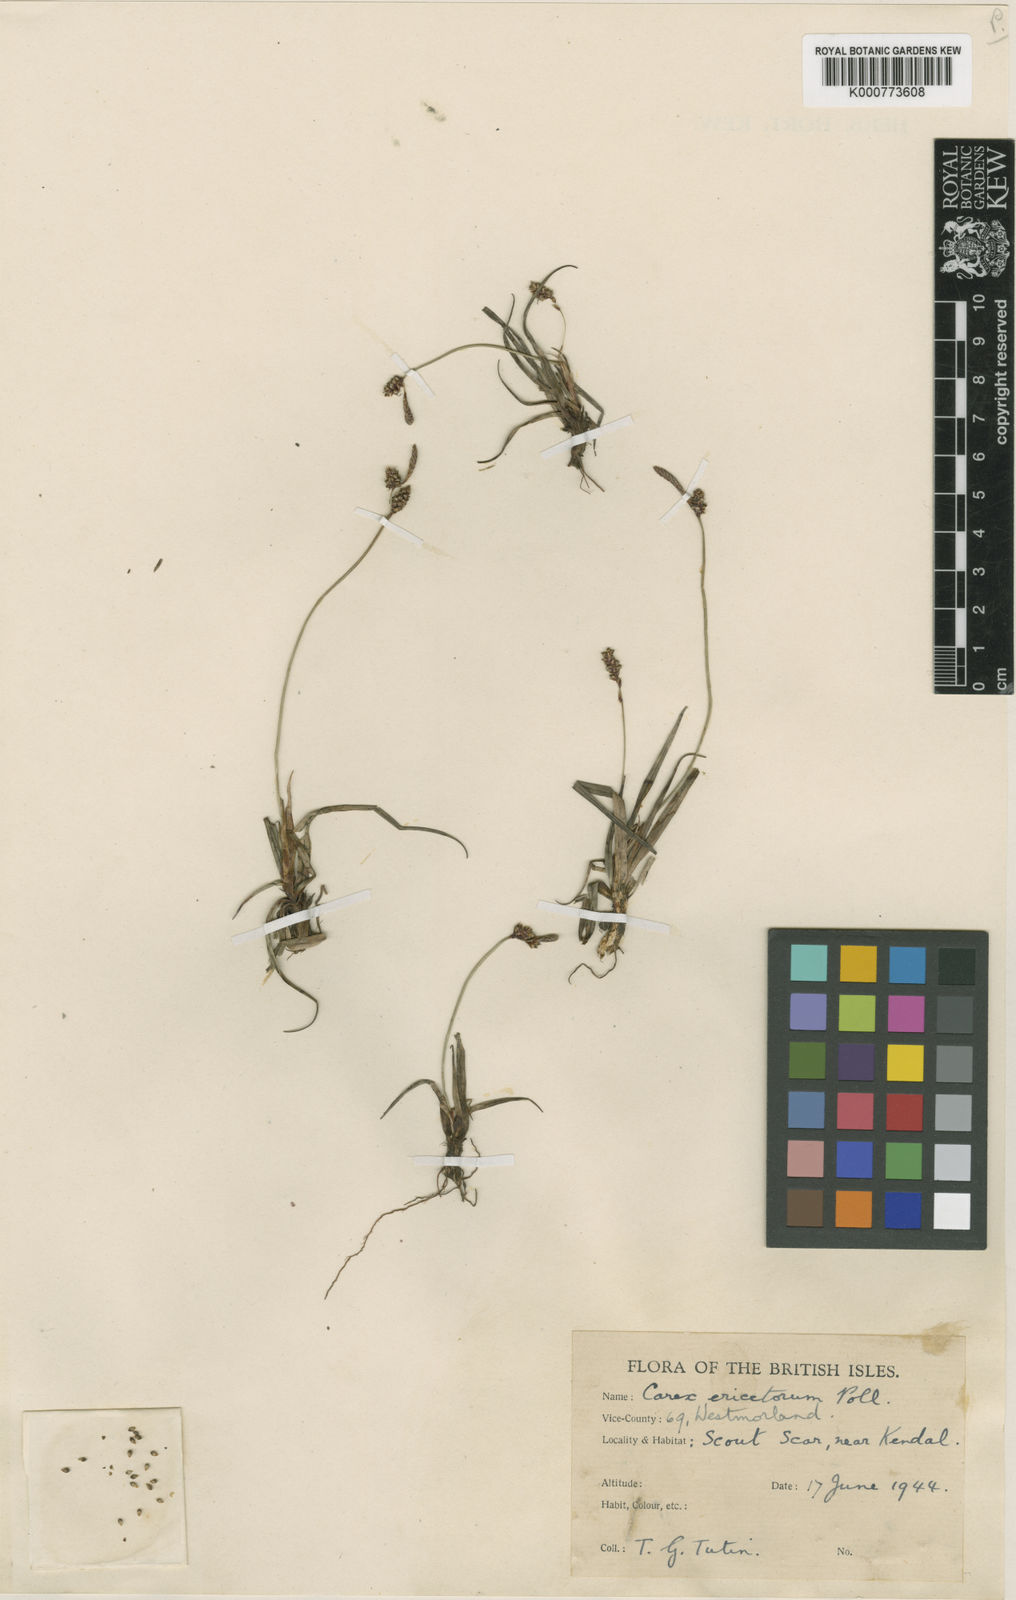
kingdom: Plantae
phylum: Tracheophyta
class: Liliopsida
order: Poales
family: Cyperaceae
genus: Carex
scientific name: Carex ericetorum
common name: Rare spring-sedge
